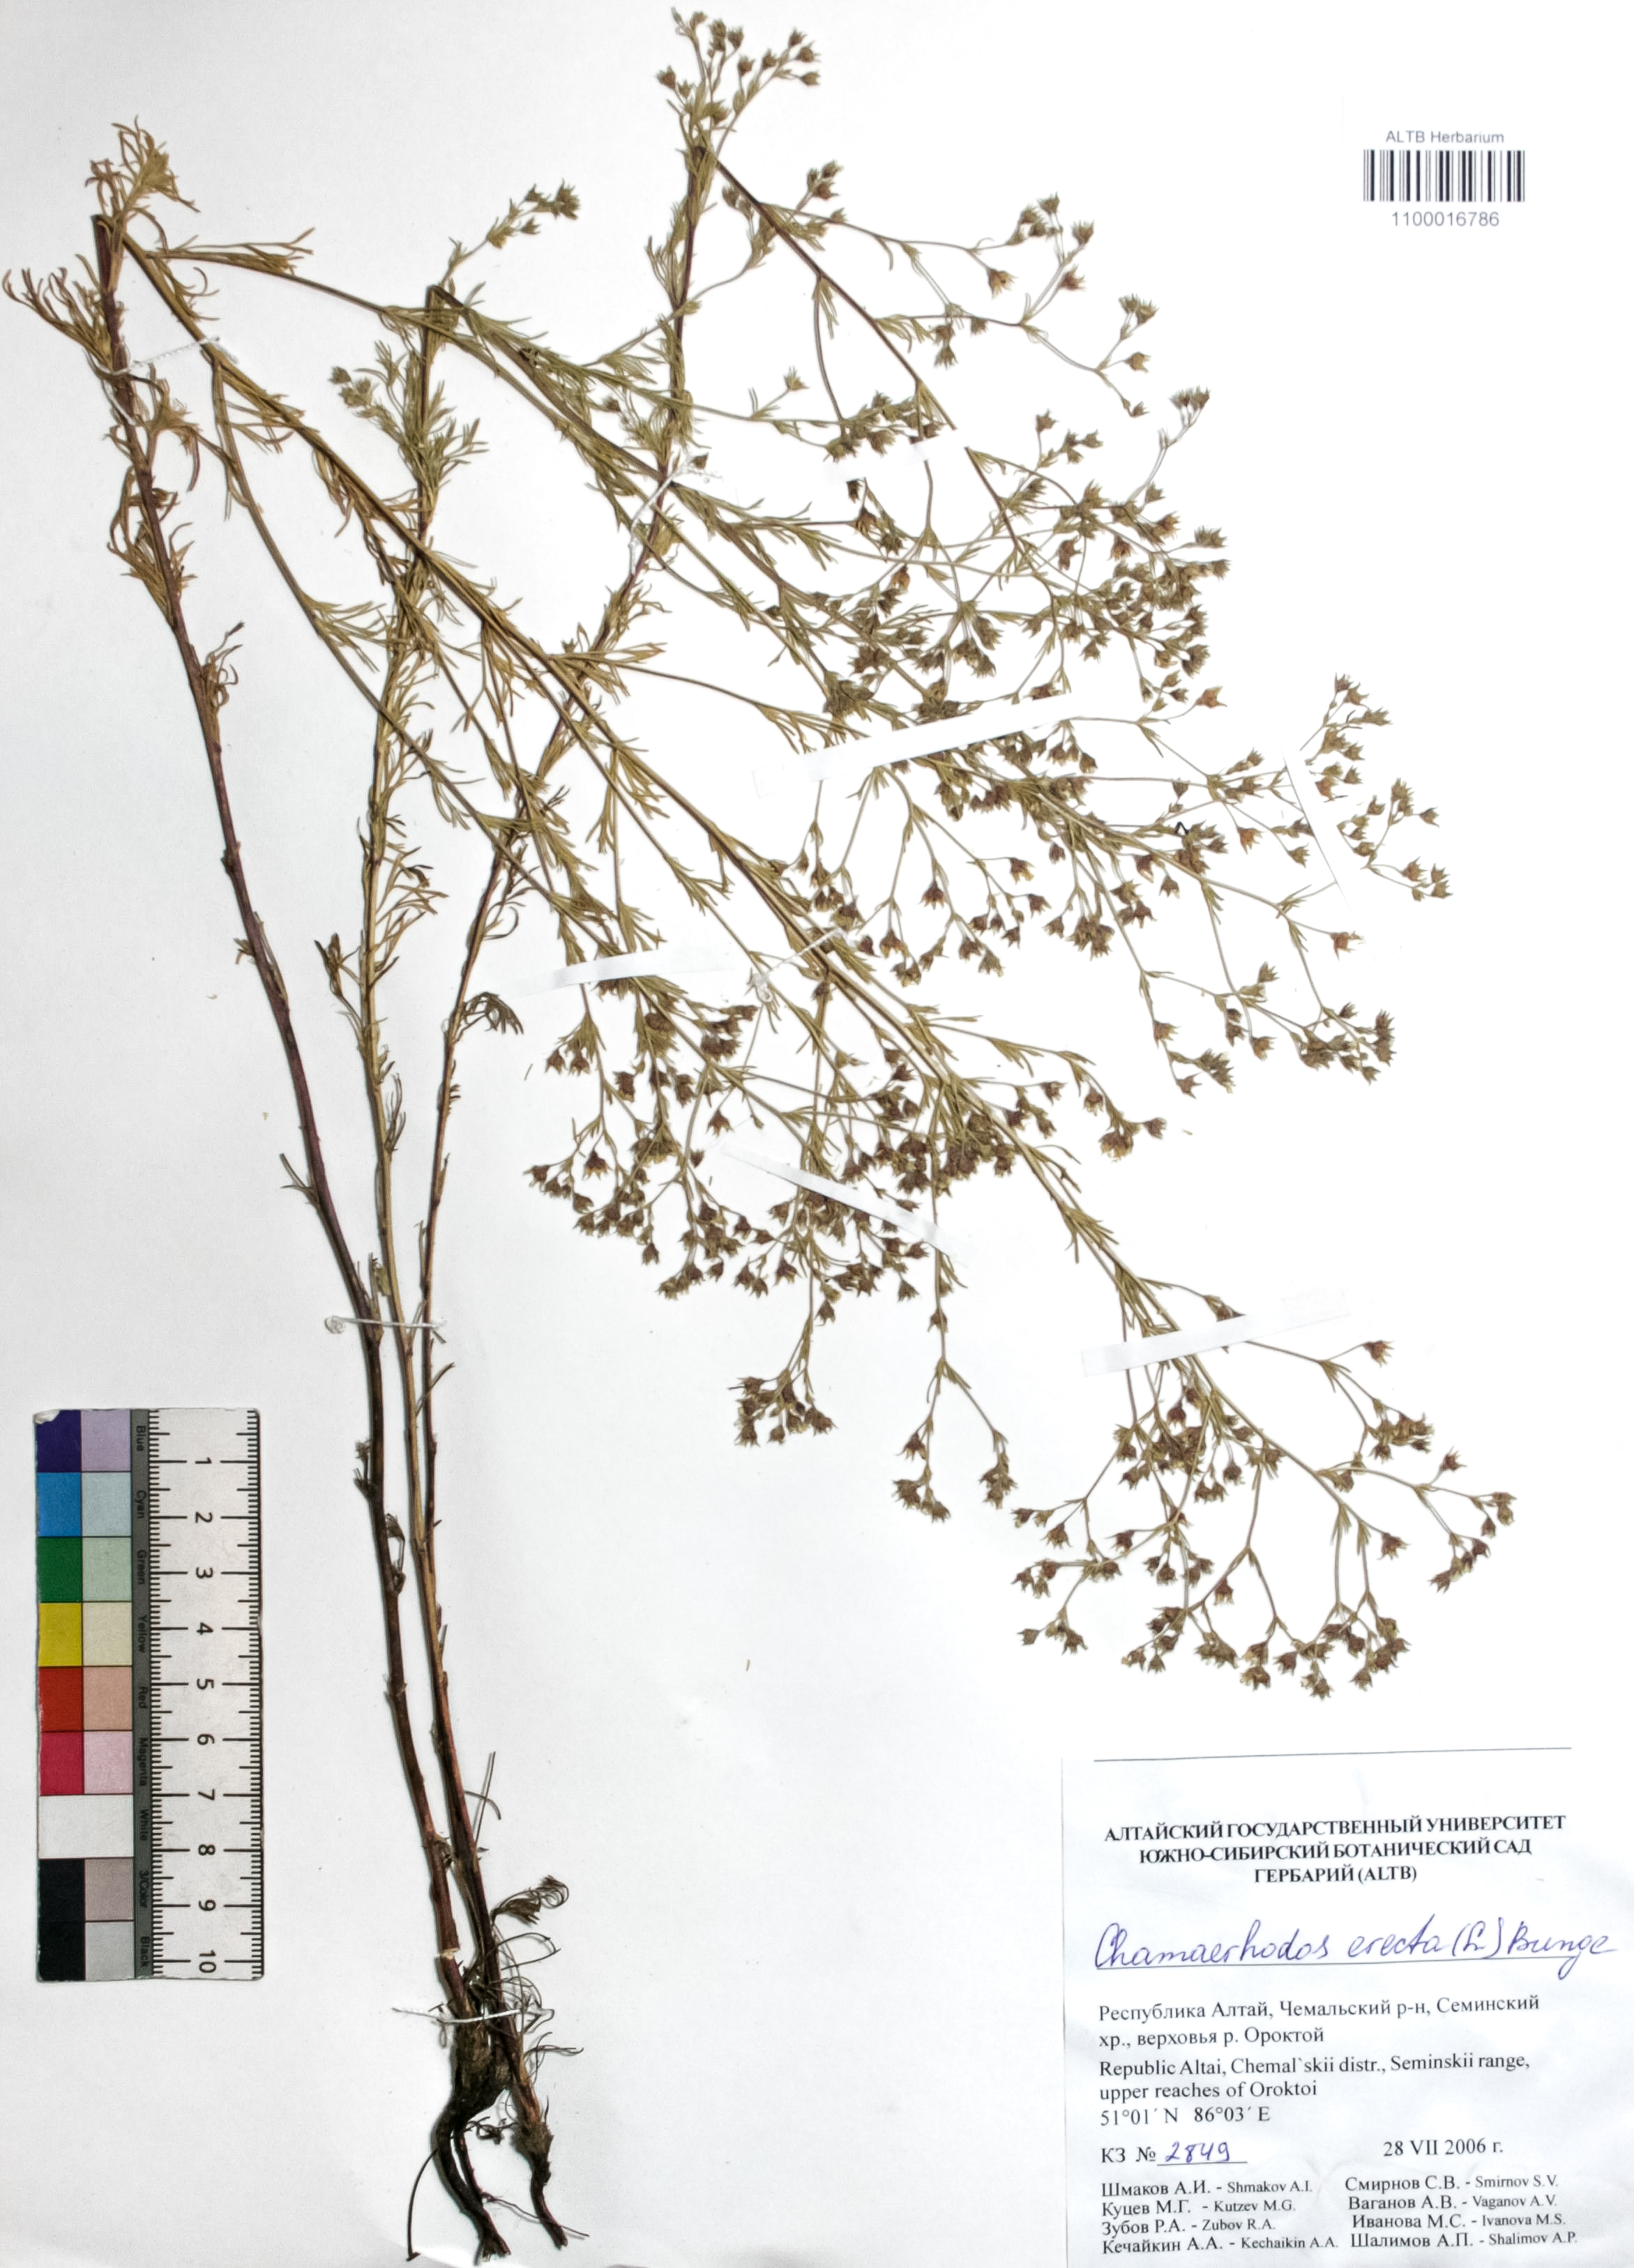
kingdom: Plantae
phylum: Tracheophyta
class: Magnoliopsida
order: Rosales
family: Rosaceae
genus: Chamaerhodos
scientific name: Chamaerhodos erecta
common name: American chamaerhodos
